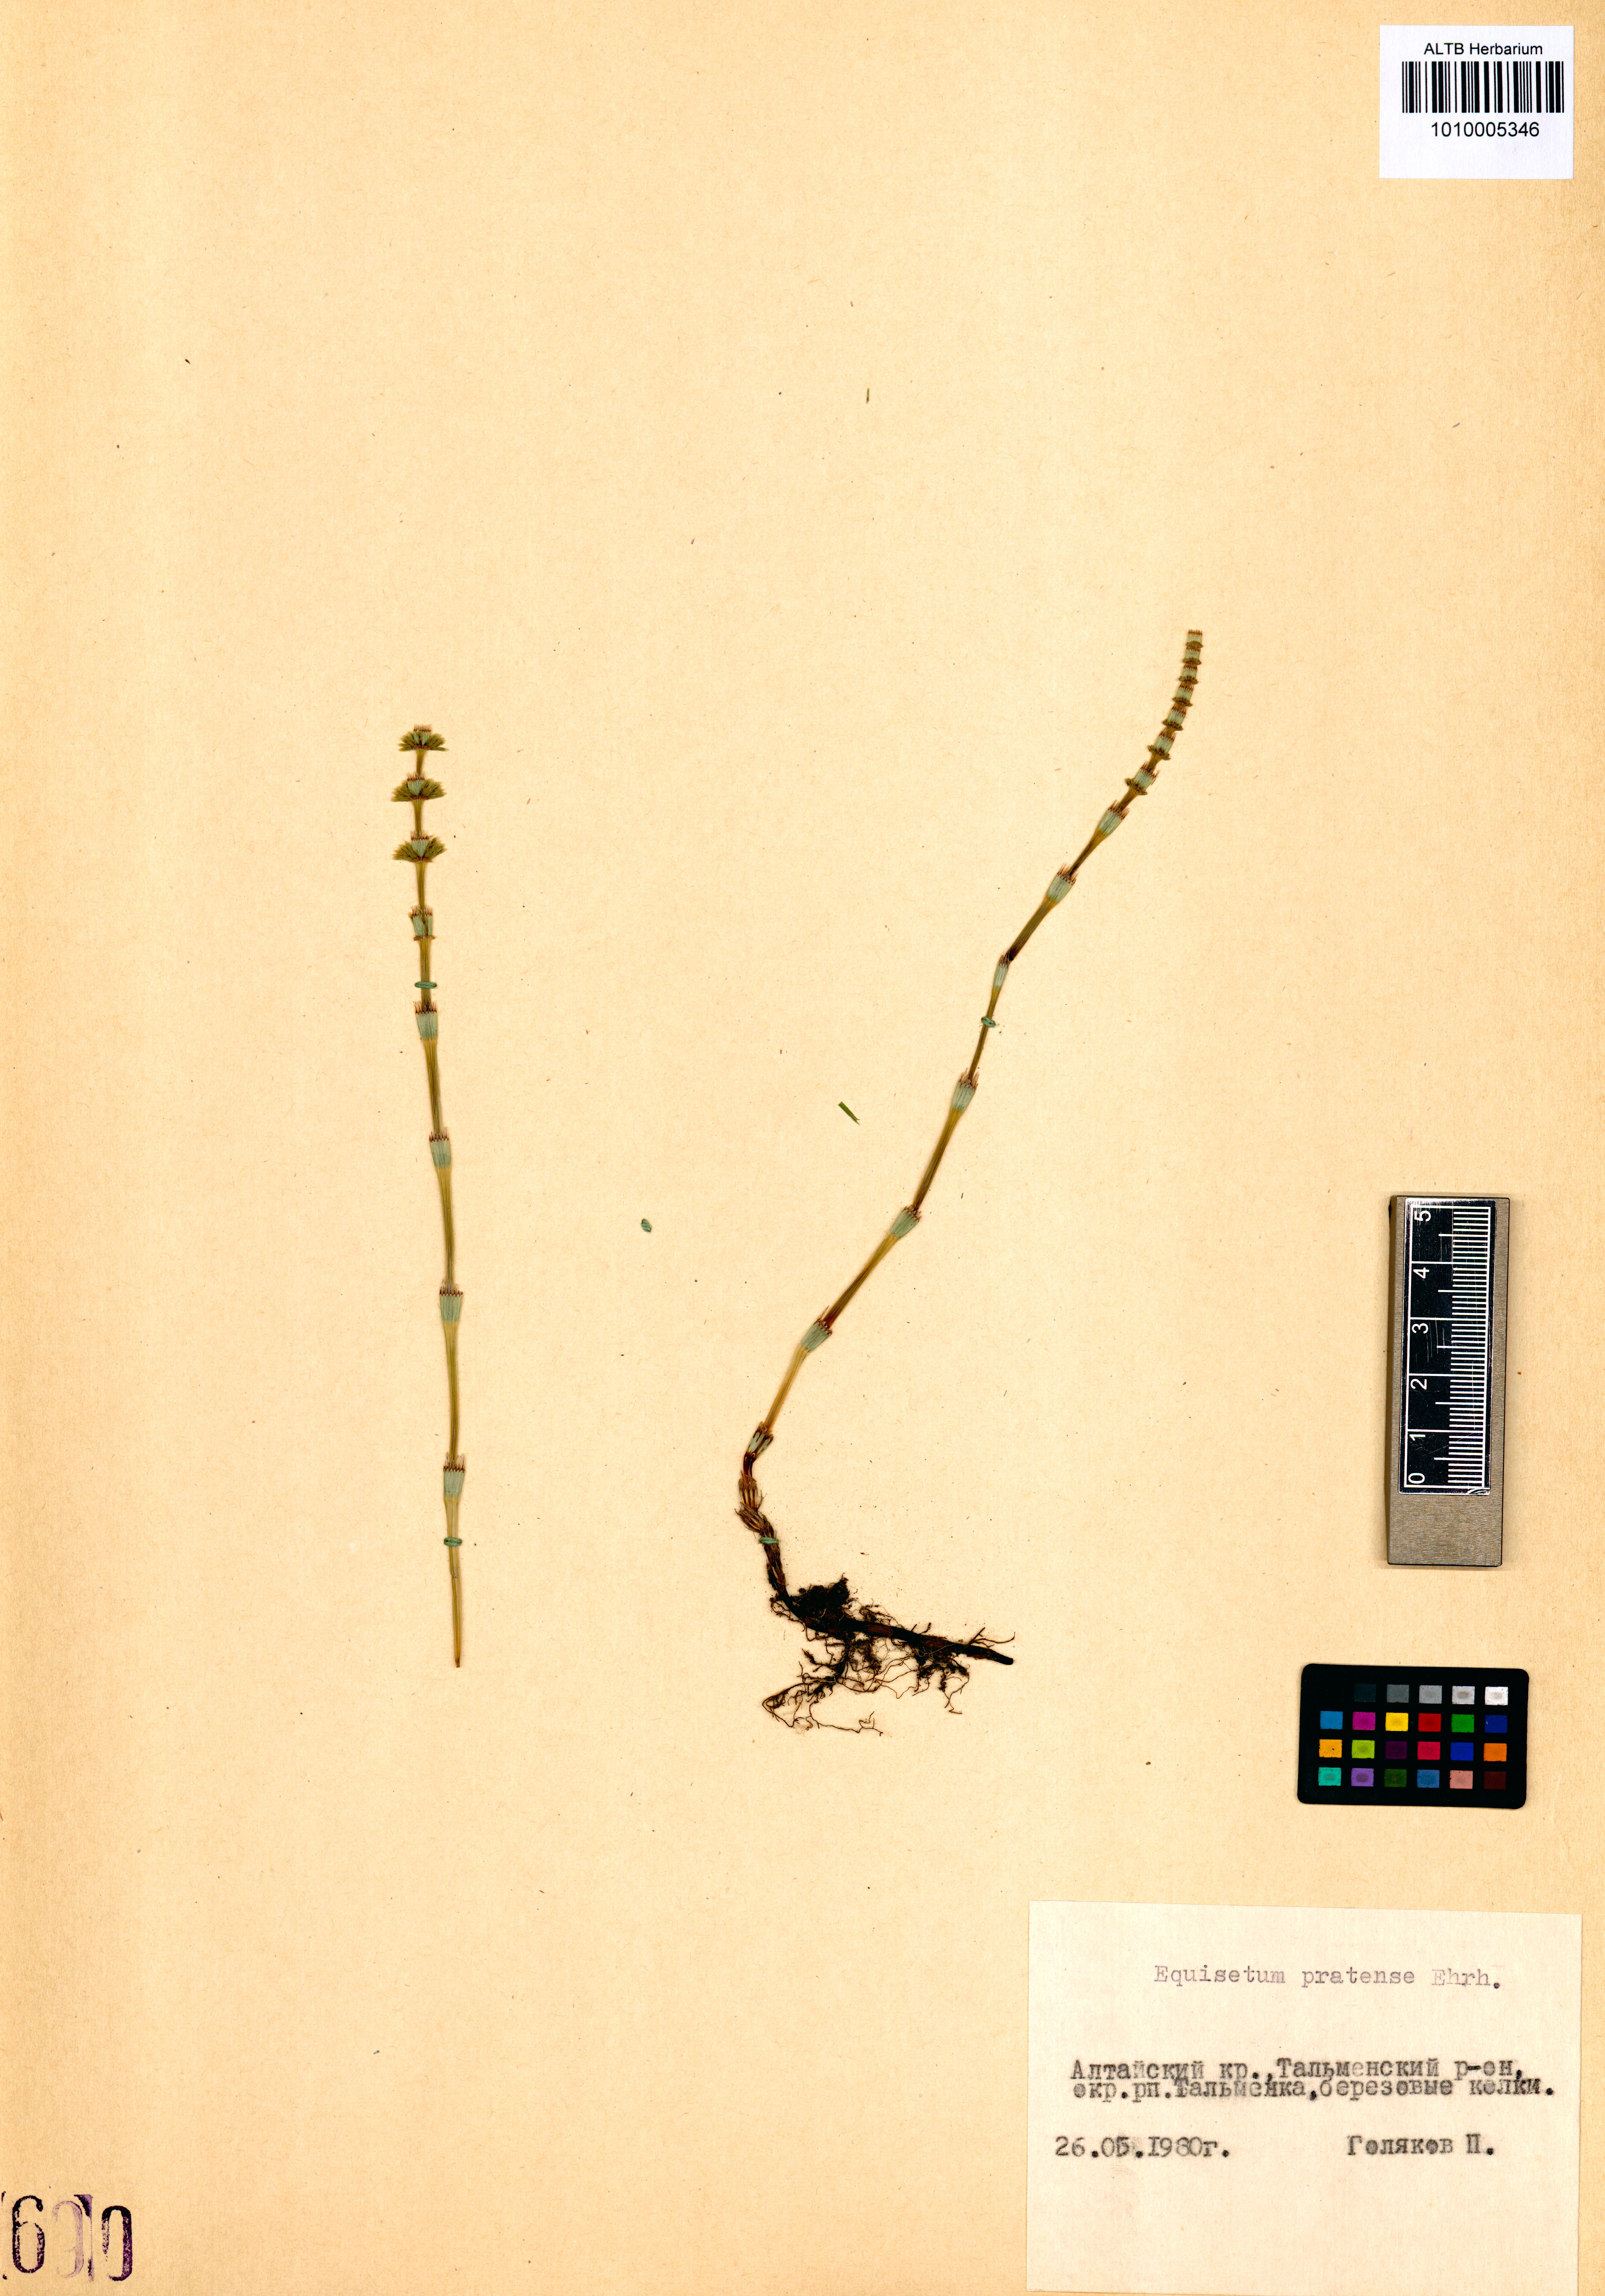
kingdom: Plantae
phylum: Tracheophyta
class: Polypodiopsida
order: Equisetales
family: Equisetaceae
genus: Equisetum
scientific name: Equisetum pratense
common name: Meadow horsetail
